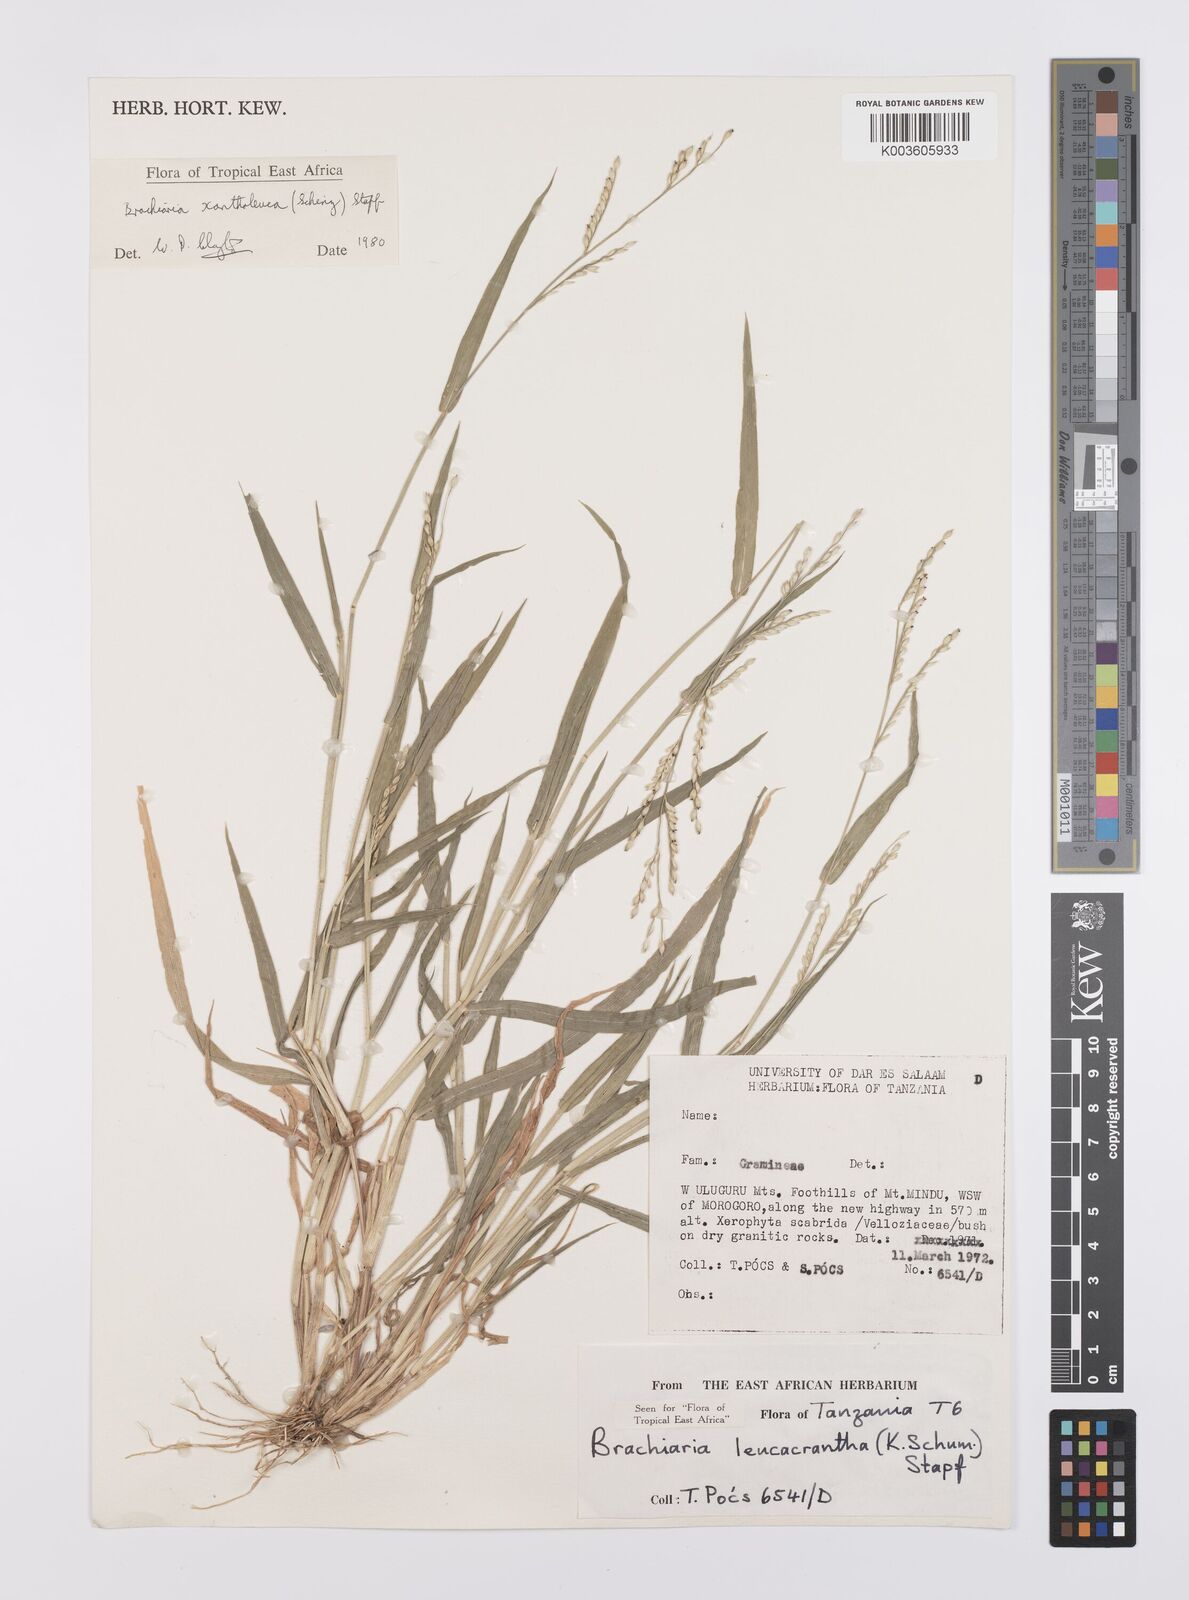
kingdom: Plantae
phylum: Tracheophyta
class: Liliopsida
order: Poales
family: Poaceae
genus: Urochloa
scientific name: Urochloa xantholeuca
